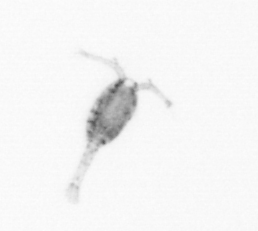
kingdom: Animalia
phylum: Arthropoda
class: Copepoda
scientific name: Copepoda
